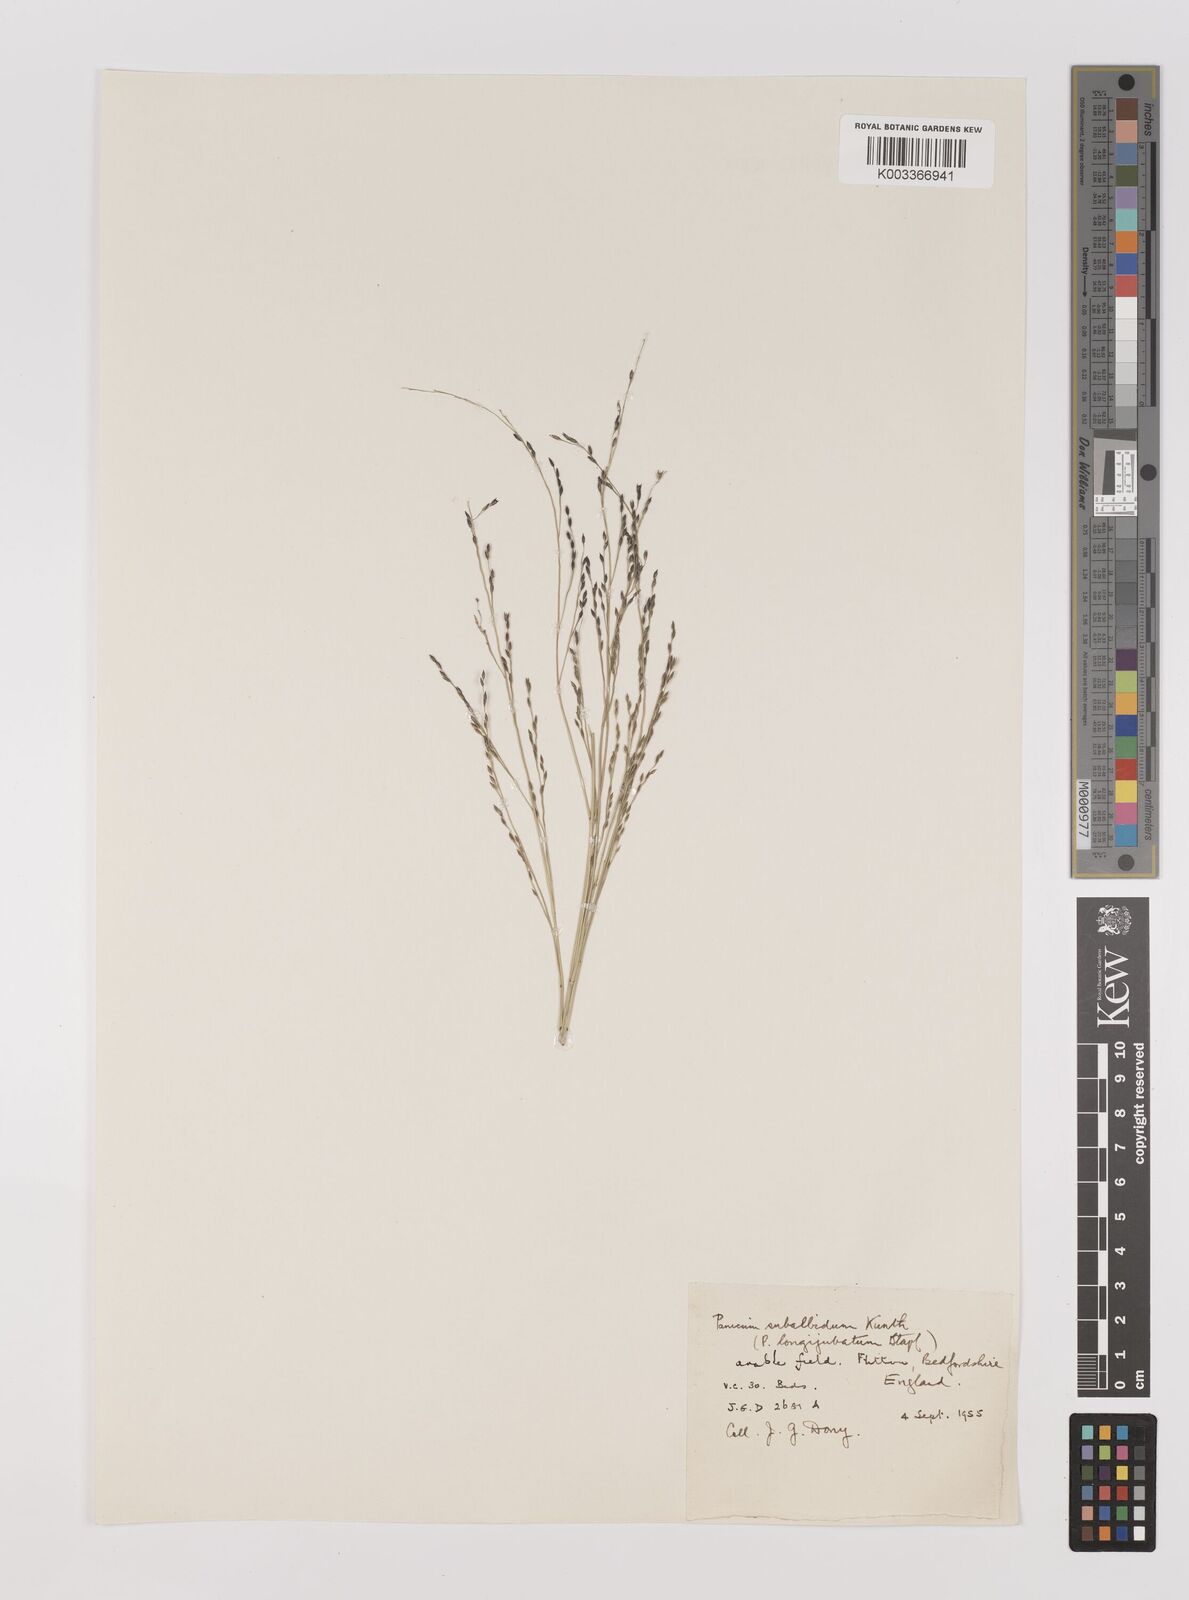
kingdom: Plantae
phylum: Tracheophyta
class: Liliopsida
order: Poales
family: Poaceae
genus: Panicum
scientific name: Panicum decompositum
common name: Australian millet
